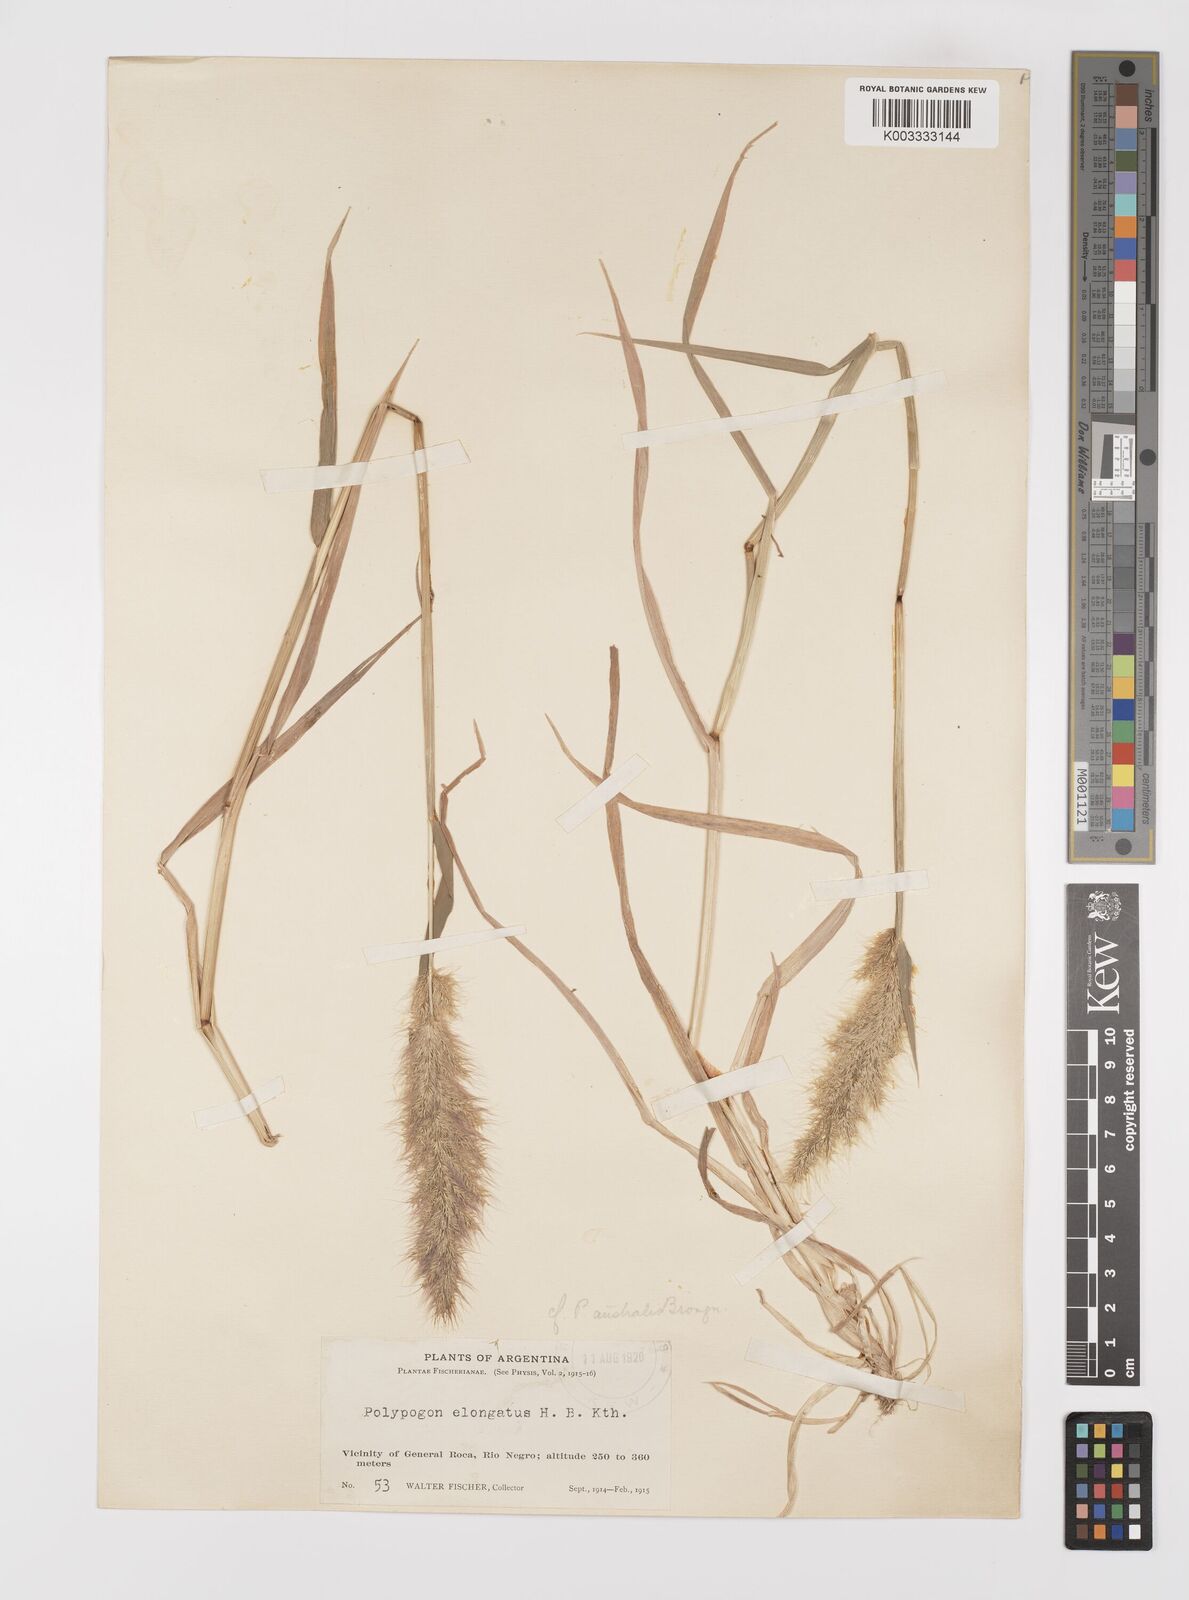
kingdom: Plantae
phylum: Tracheophyta
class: Liliopsida
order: Poales
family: Poaceae
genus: Polypogon
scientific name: Polypogon australis
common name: Chilean rabbitsfoot grass
